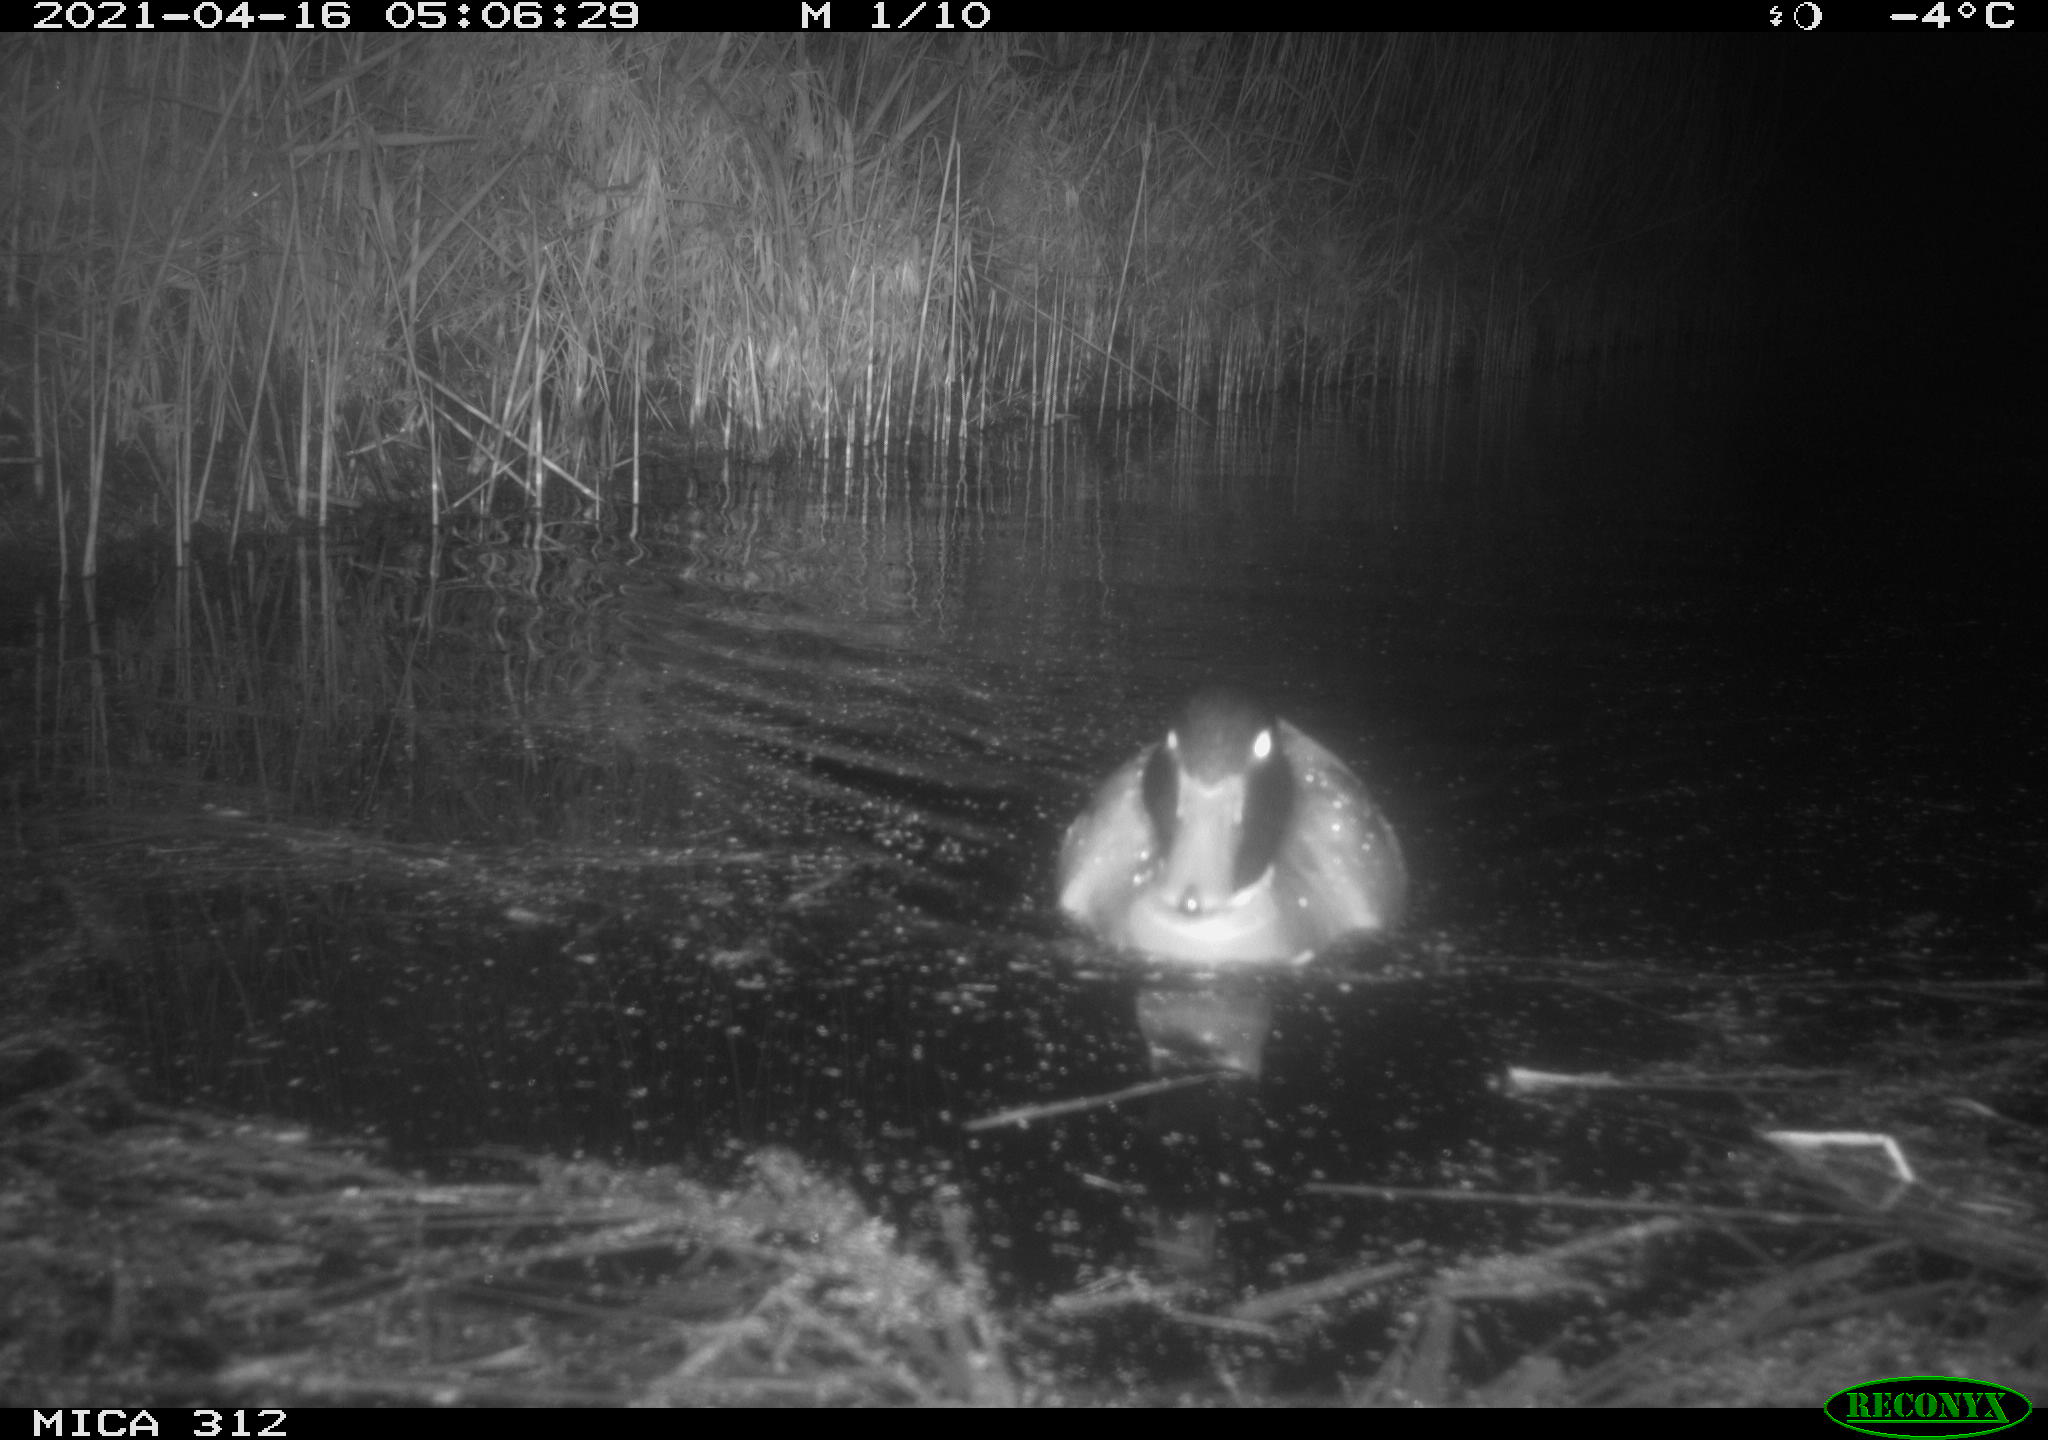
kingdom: Animalia
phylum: Chordata
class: Aves
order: Anseriformes
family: Anatidae
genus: Anas
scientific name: Anas platyrhynchos
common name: Mallard
